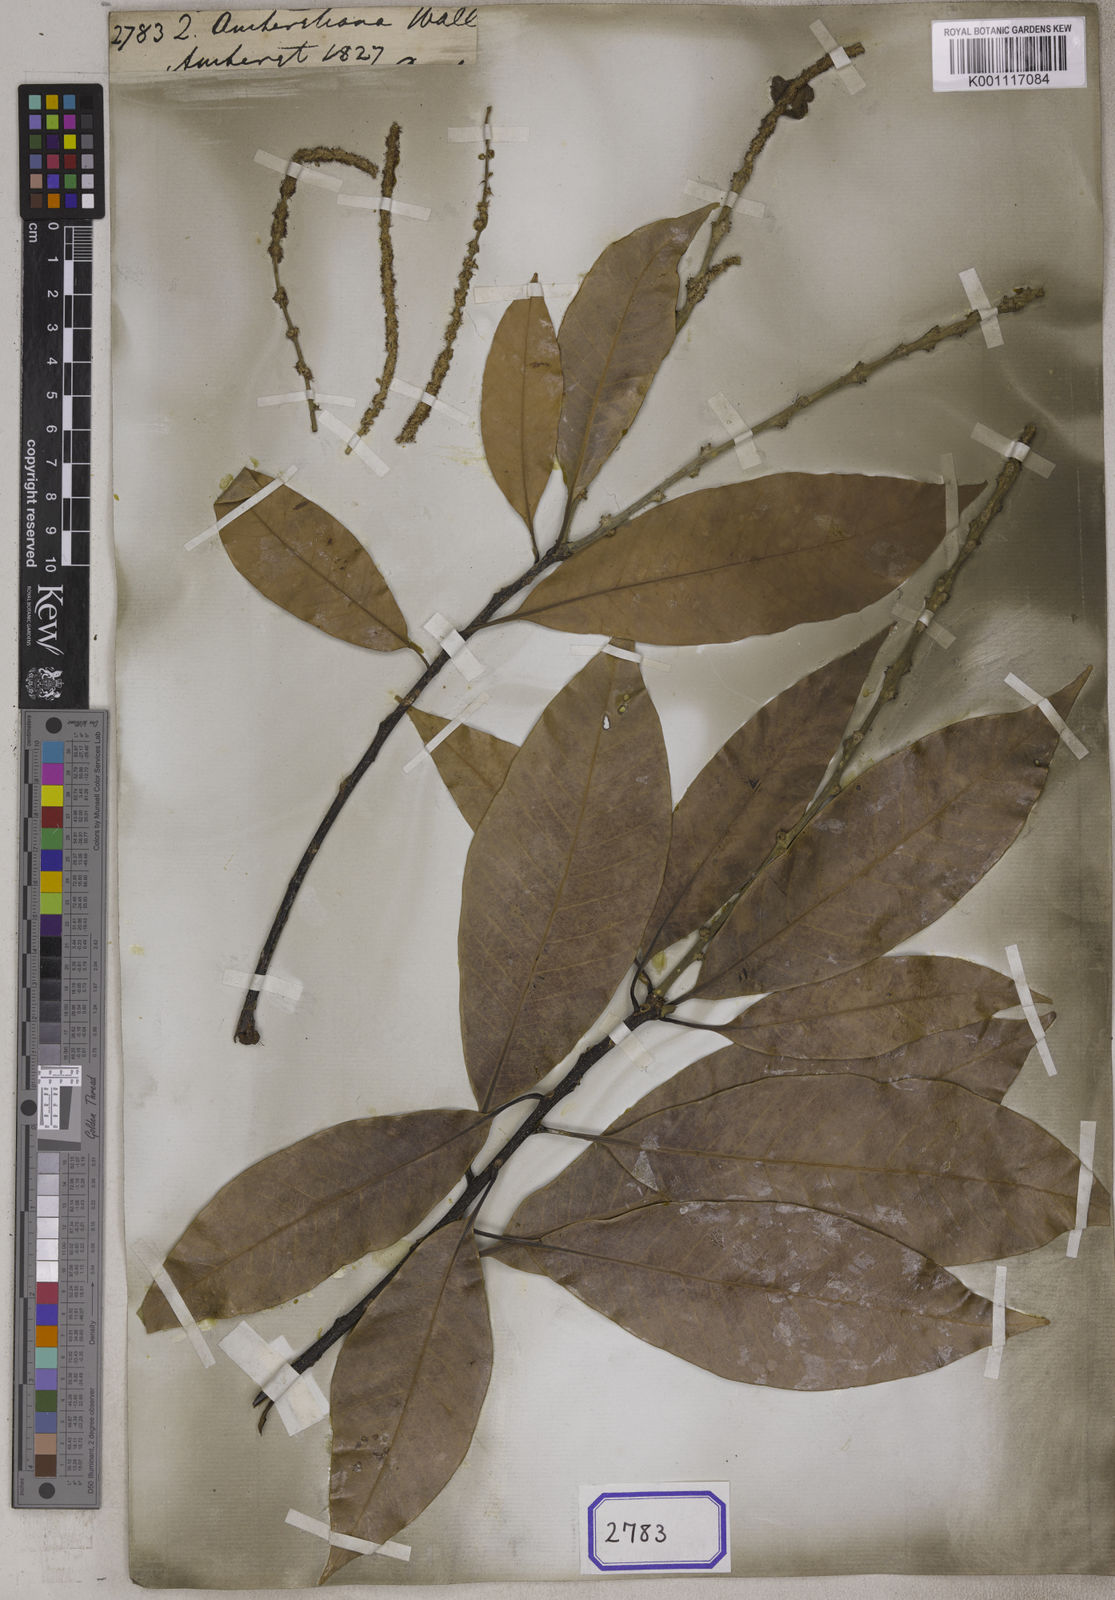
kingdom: Plantae
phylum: Tracheophyta
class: Magnoliopsida
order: Fagales
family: Fagaceae
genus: Quercus
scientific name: Quercus
